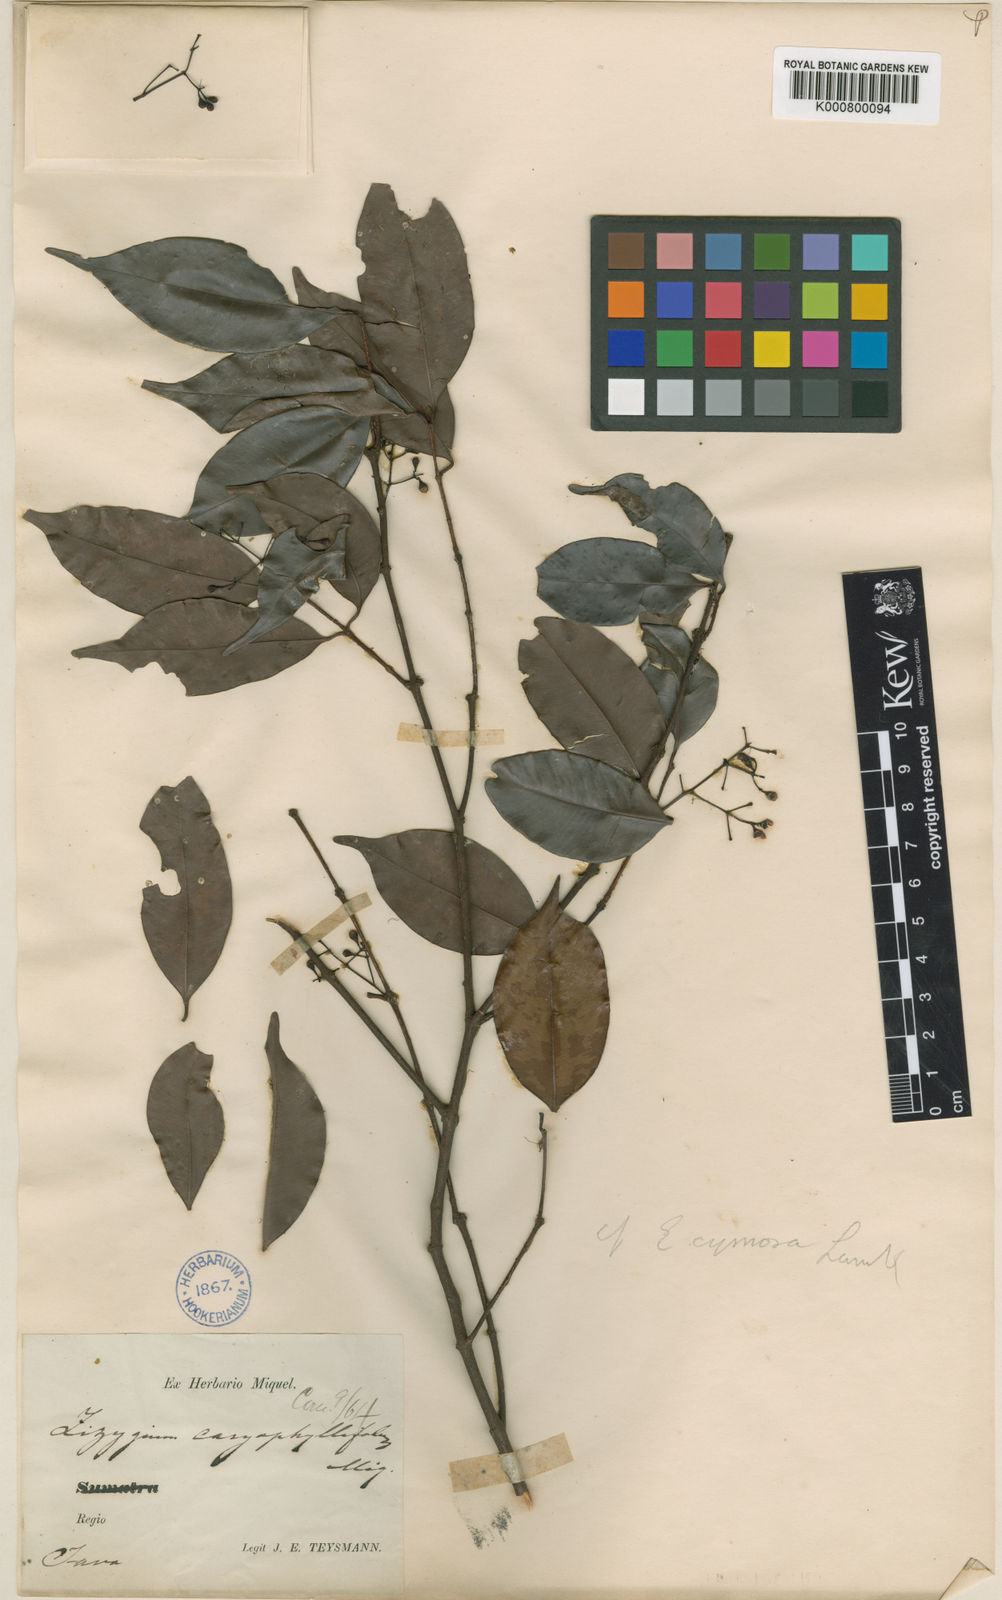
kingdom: Plantae
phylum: Tracheophyta
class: Magnoliopsida
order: Myrtales
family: Myrtaceae
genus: Syzygium
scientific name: Syzygium syzygioides
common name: Myrtle
